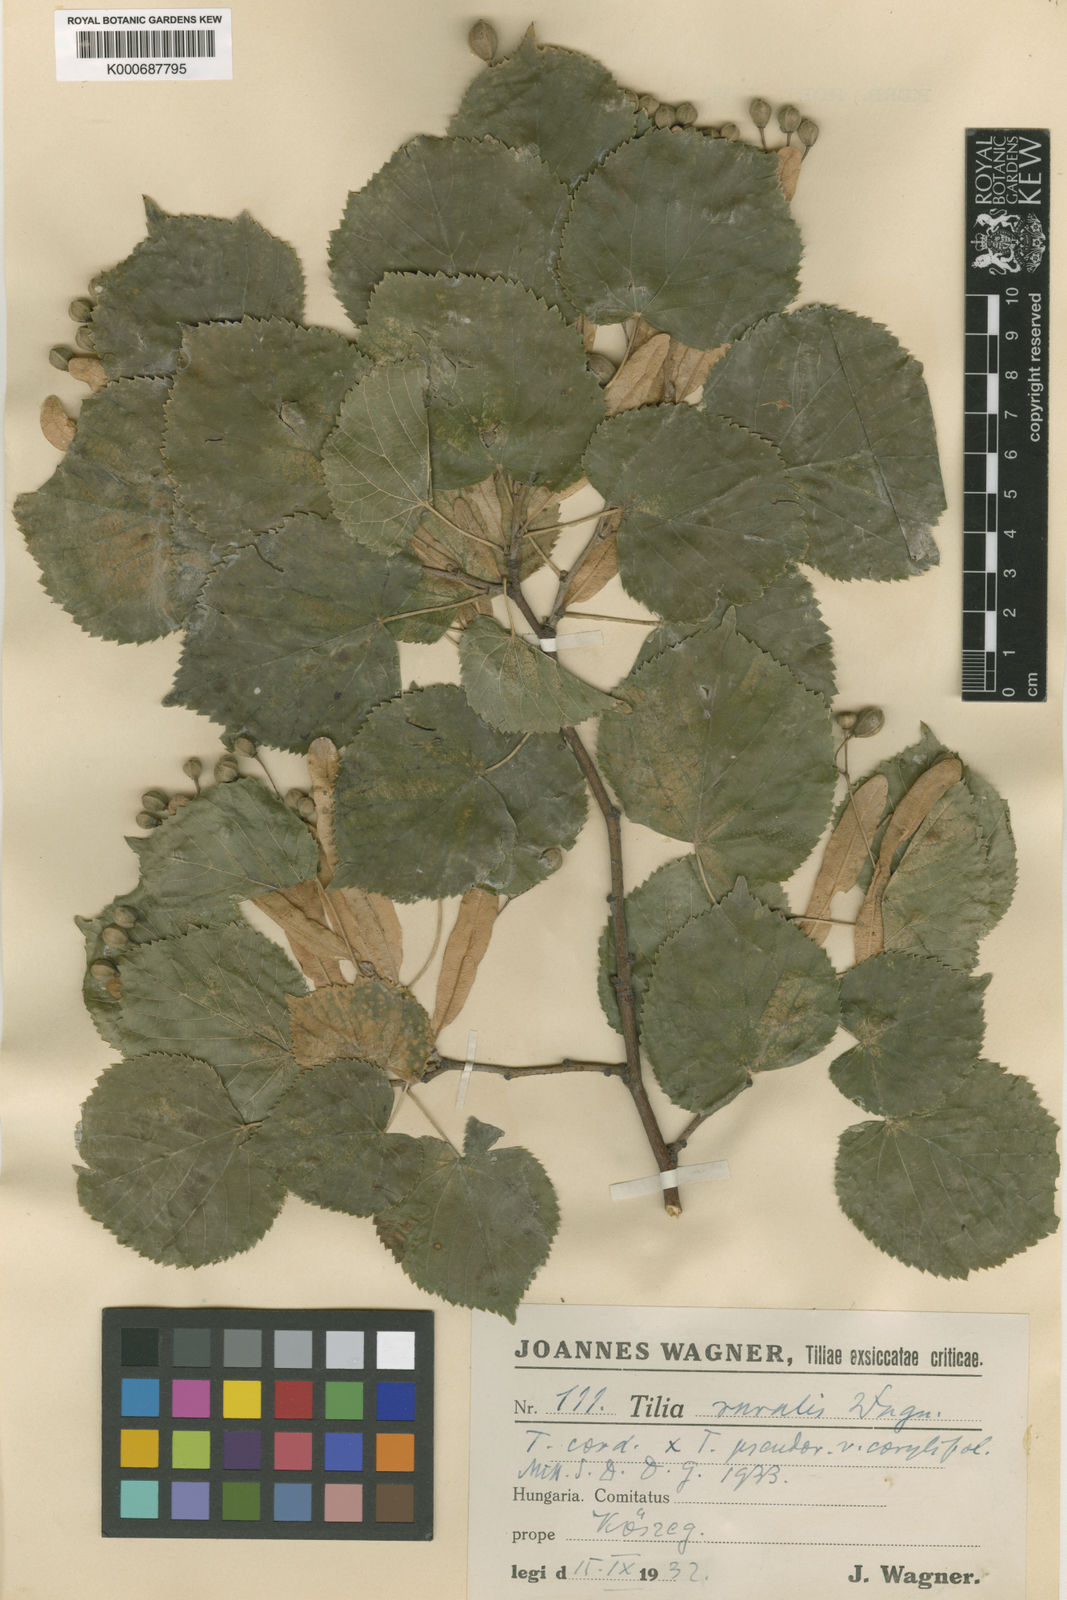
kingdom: Plantae
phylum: Tracheophyta
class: Magnoliopsida
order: Malvales
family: Malvaceae
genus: Tilia
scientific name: Tilia
